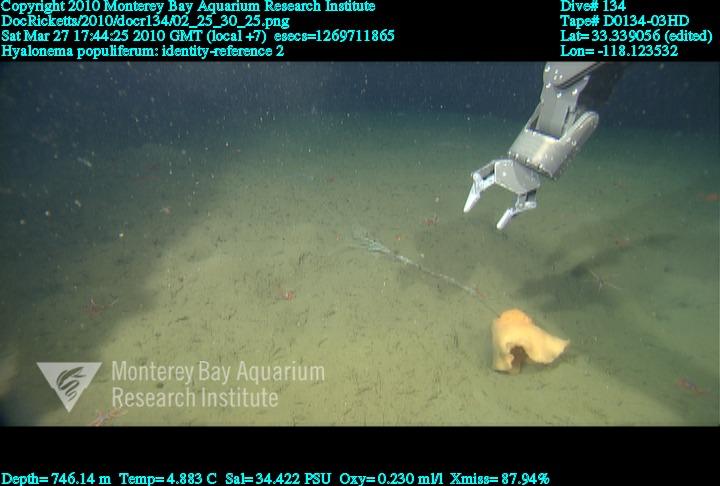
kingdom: Animalia
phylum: Porifera
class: Hexactinellida
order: Amphidiscosida
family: Hyalonematidae
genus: Hyalonema
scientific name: Hyalonema populiferum
